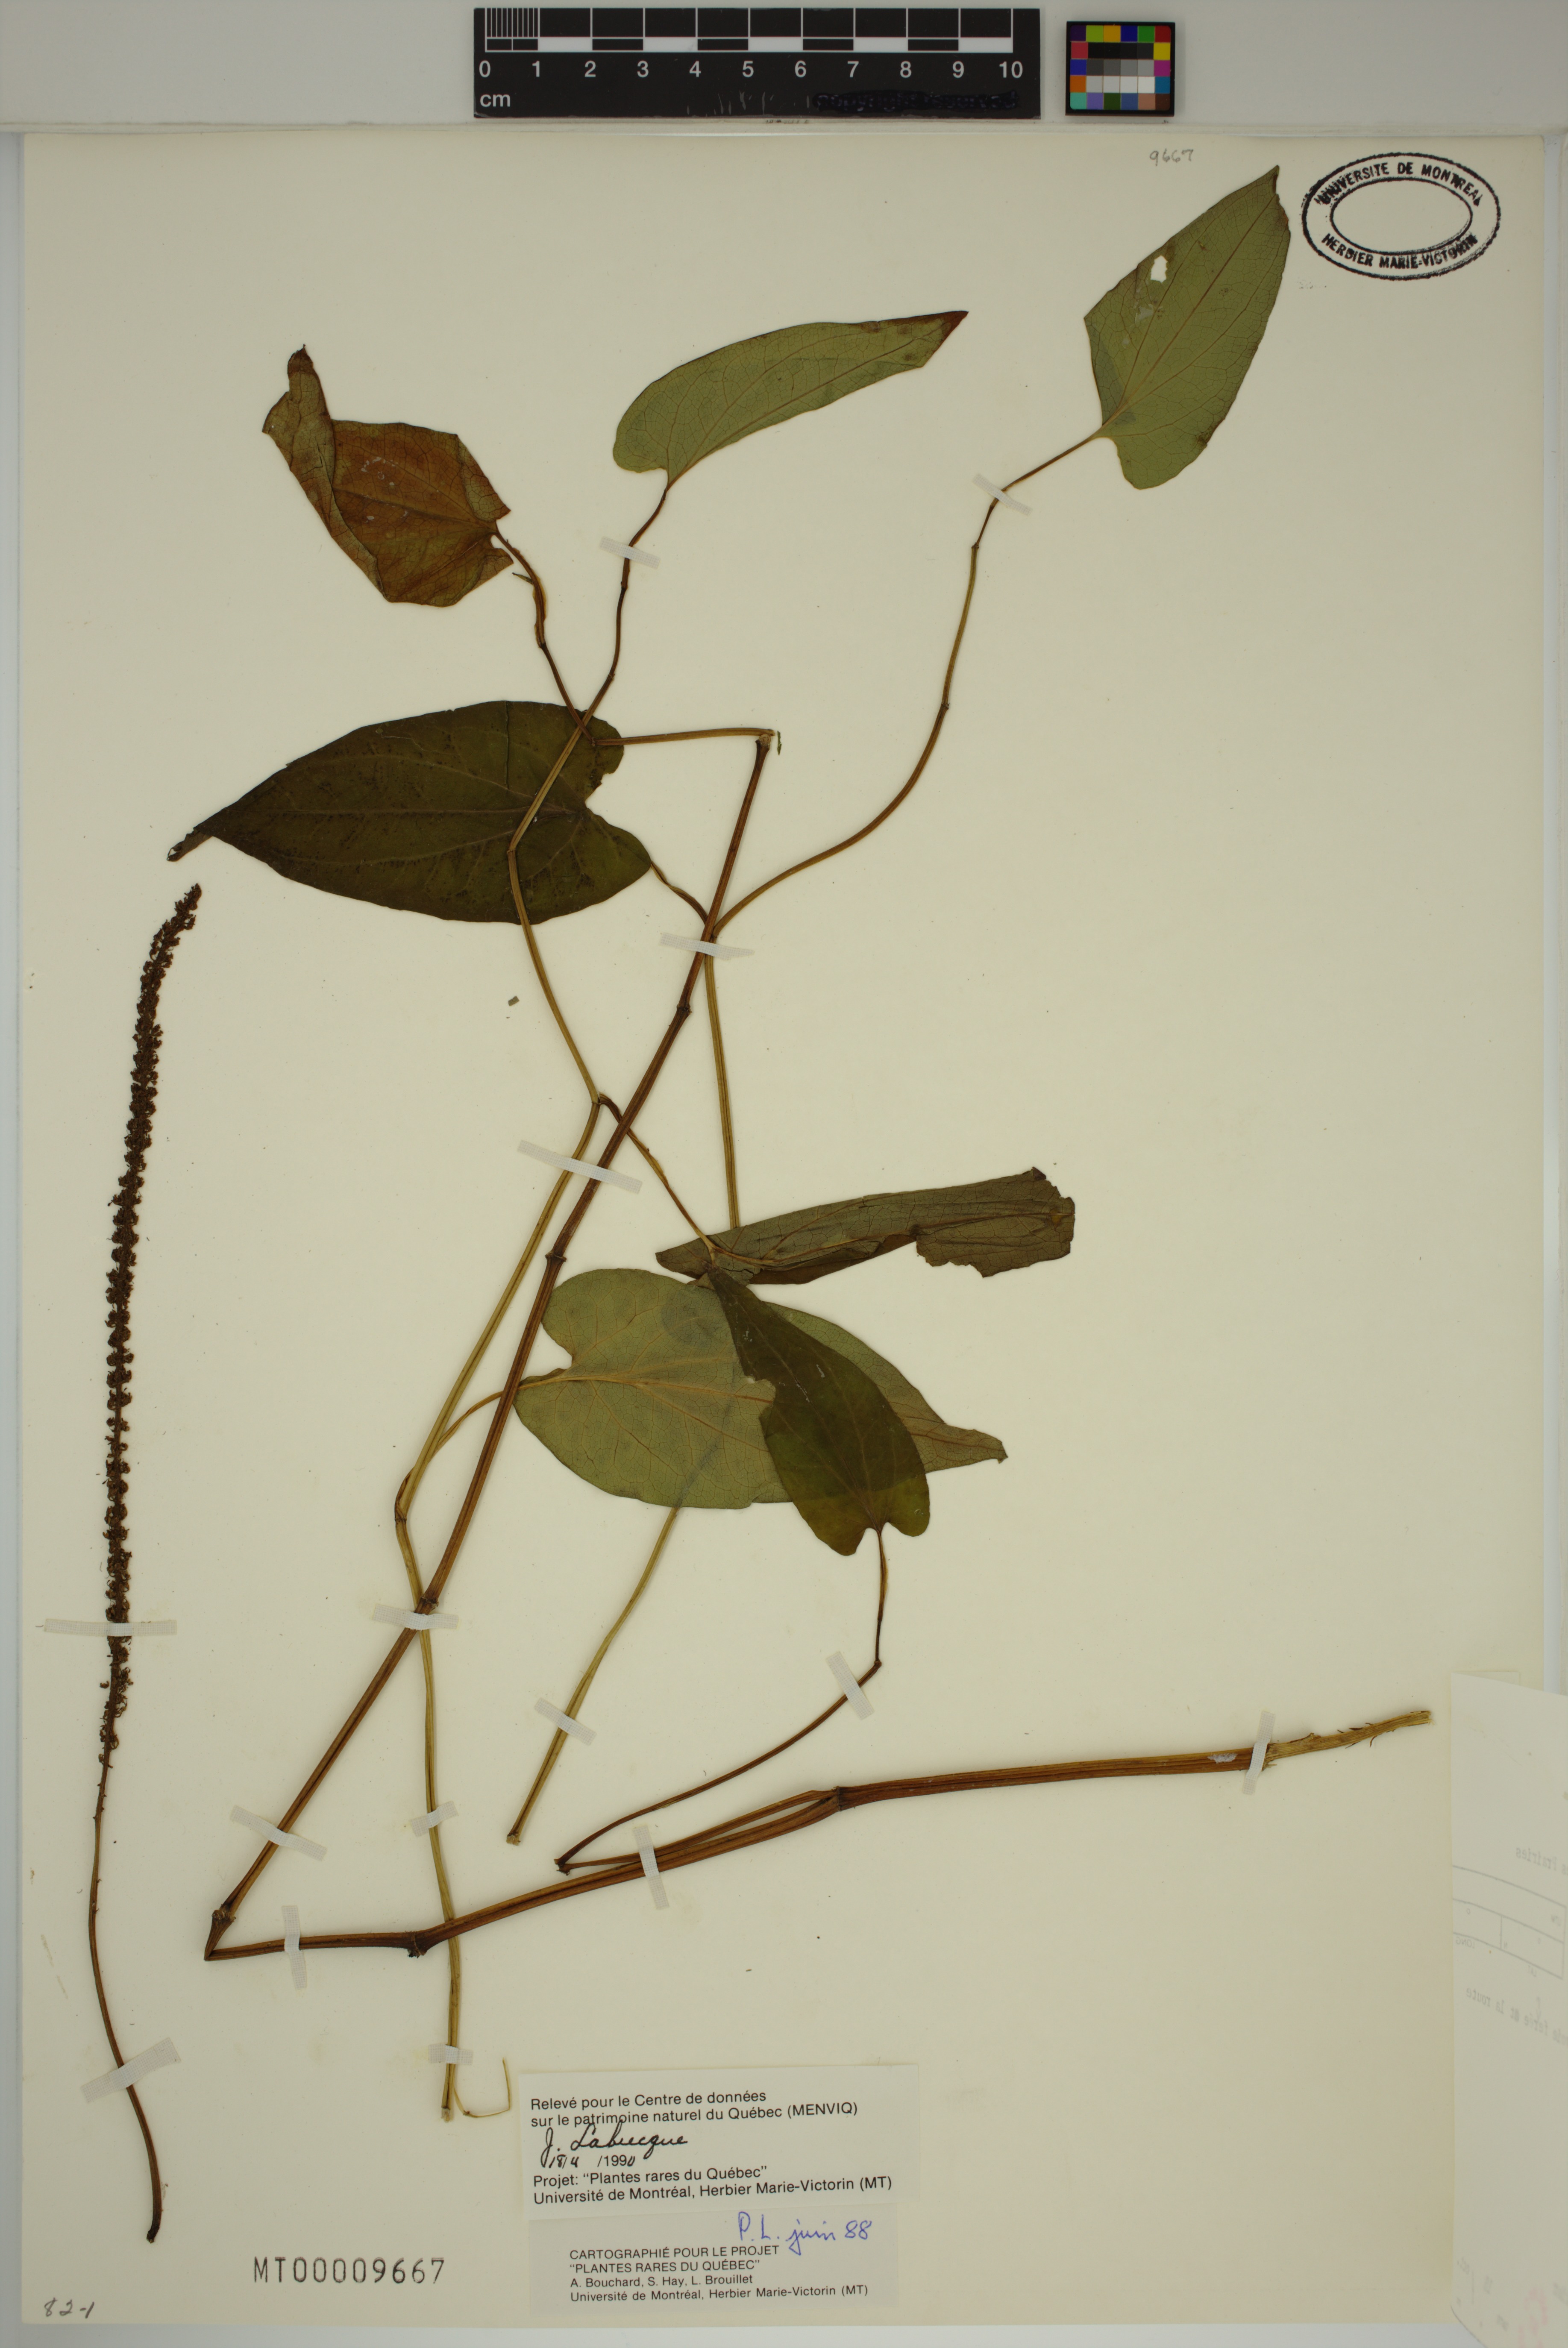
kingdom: Plantae
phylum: Tracheophyta
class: Magnoliopsida
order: Piperales
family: Saururaceae
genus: Saururus
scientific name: Saururus cernuus
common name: Lizard's-tail
